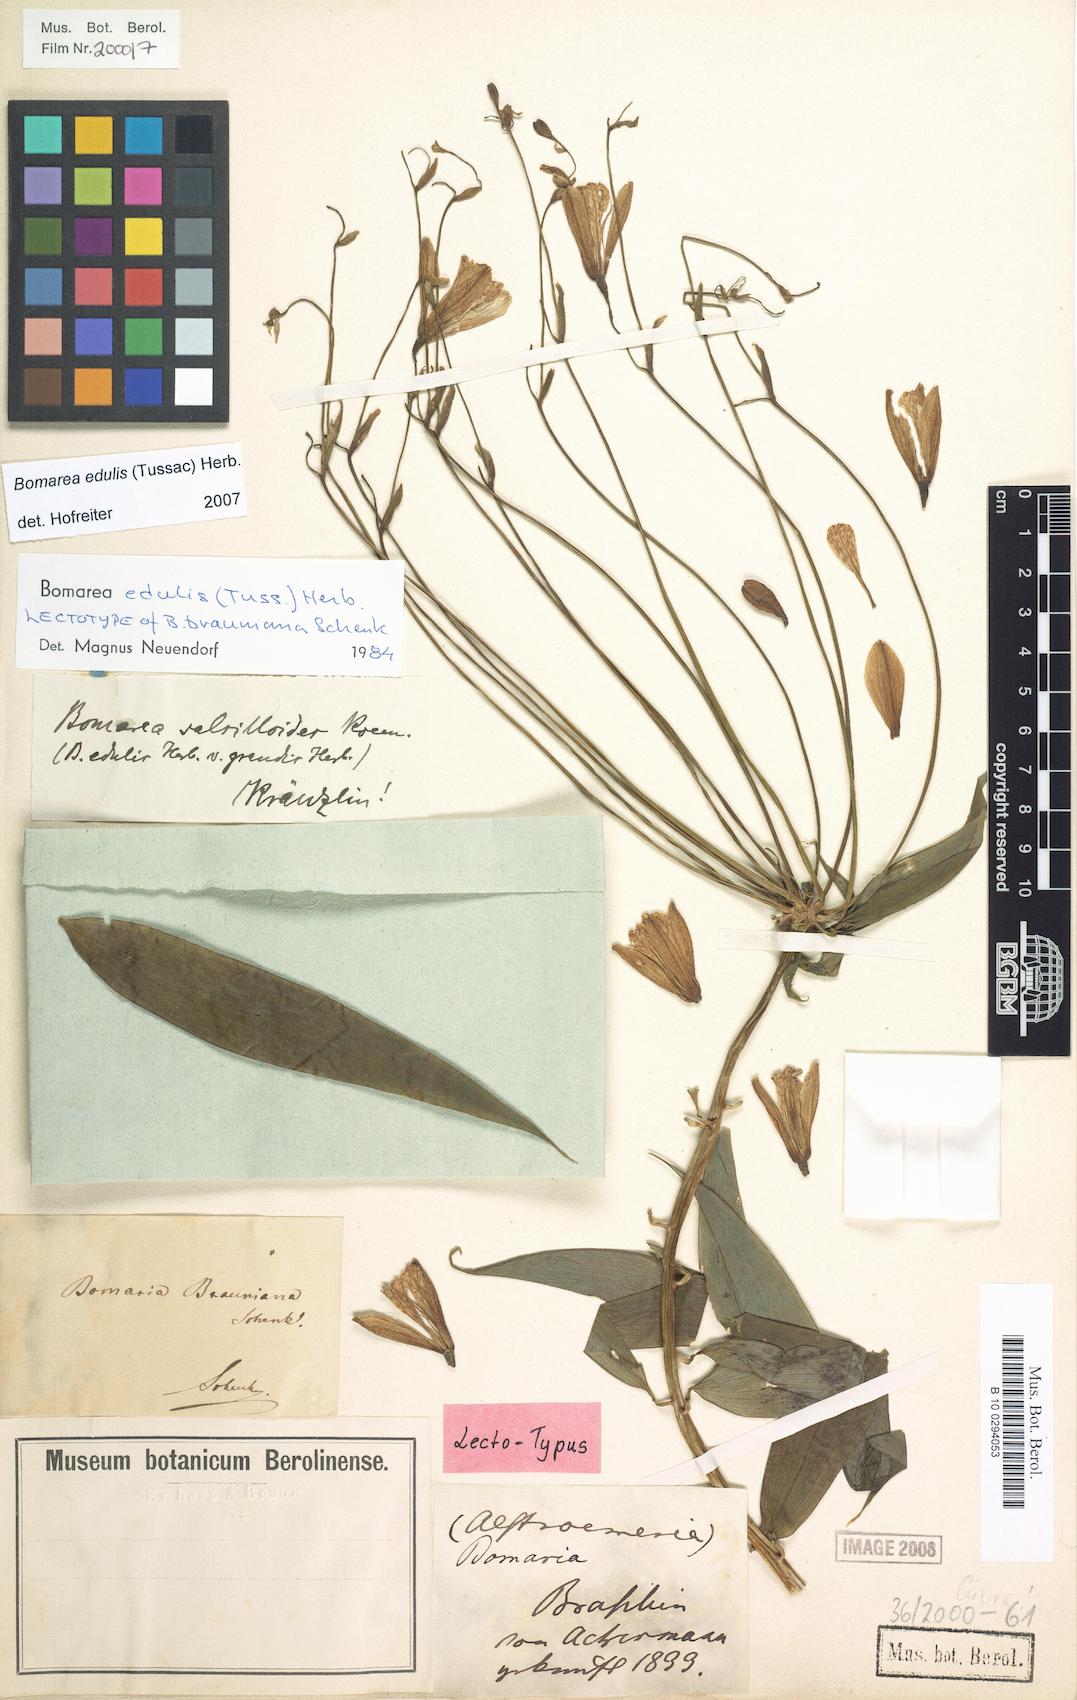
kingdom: Plantae
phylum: Tracheophyta
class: Liliopsida
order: Liliales
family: Alstroemeriaceae
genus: Bomarea
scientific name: Bomarea edulis
